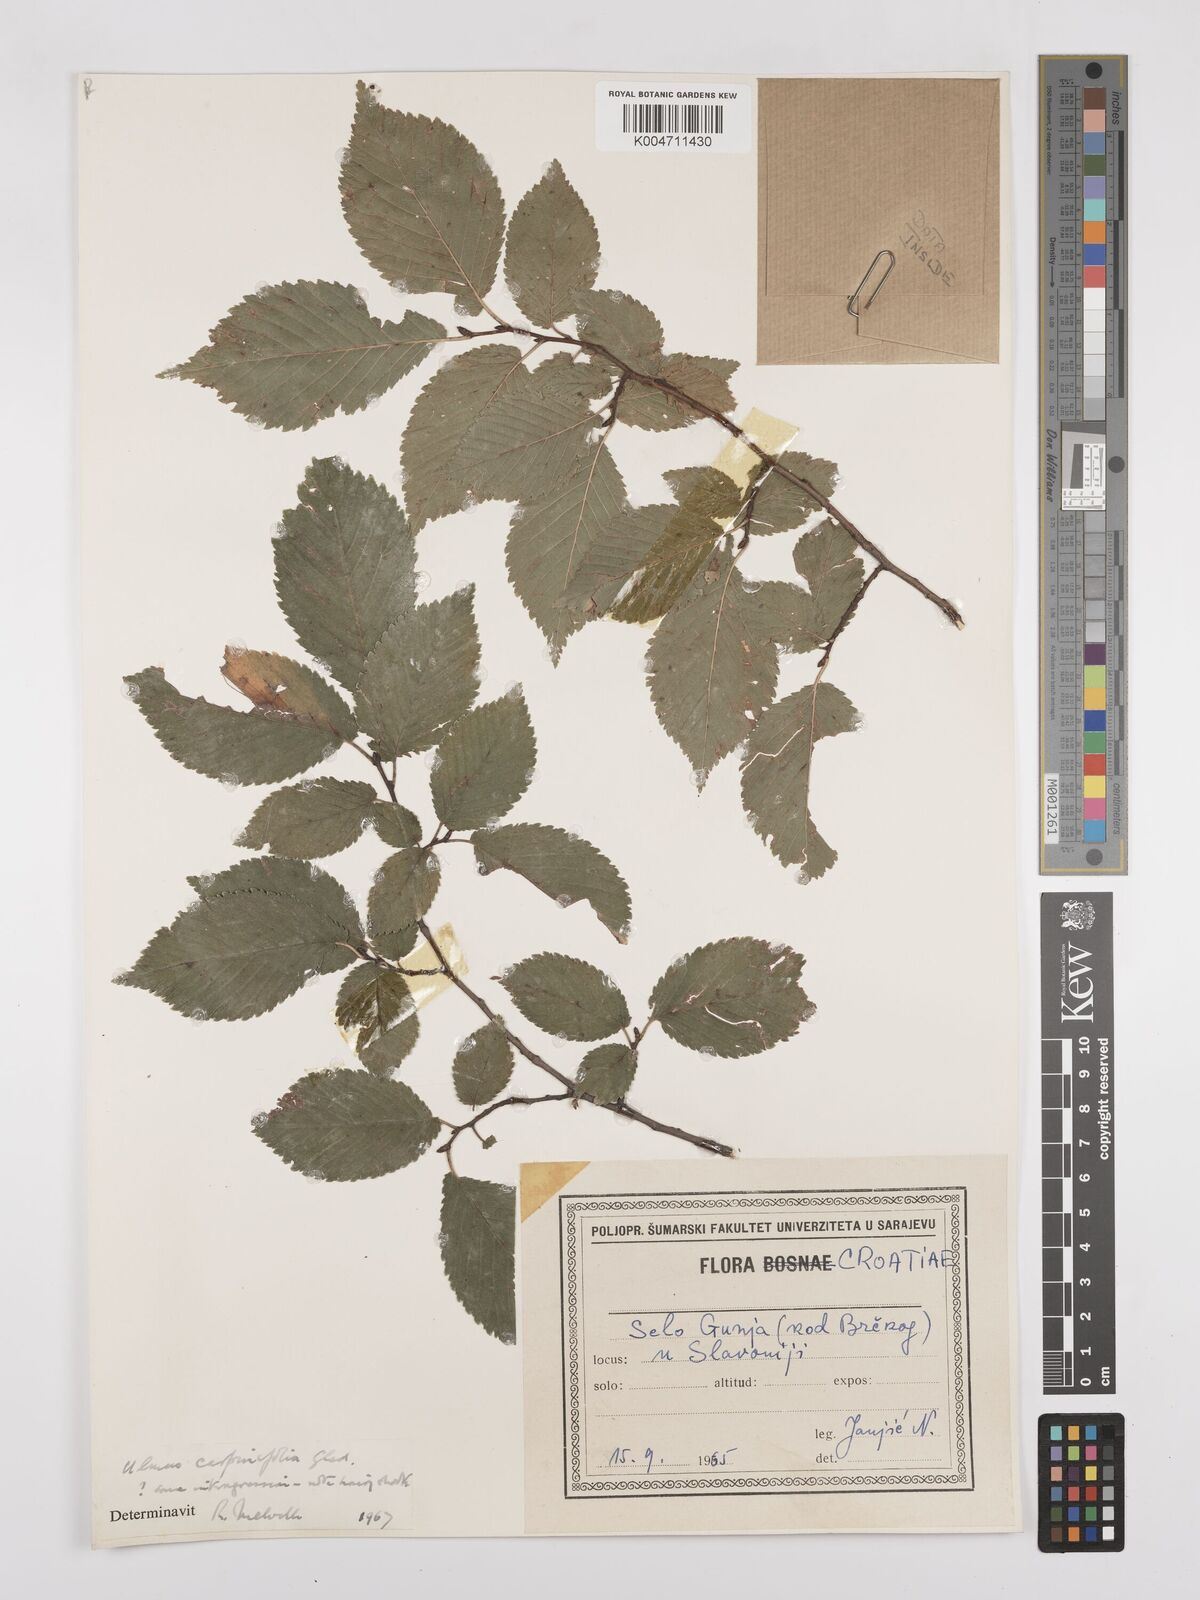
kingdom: Plantae
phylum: Tracheophyta
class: Magnoliopsida
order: Rosales
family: Ulmaceae
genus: Ulmus
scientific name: Ulmus minor
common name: Small-leaved elm
